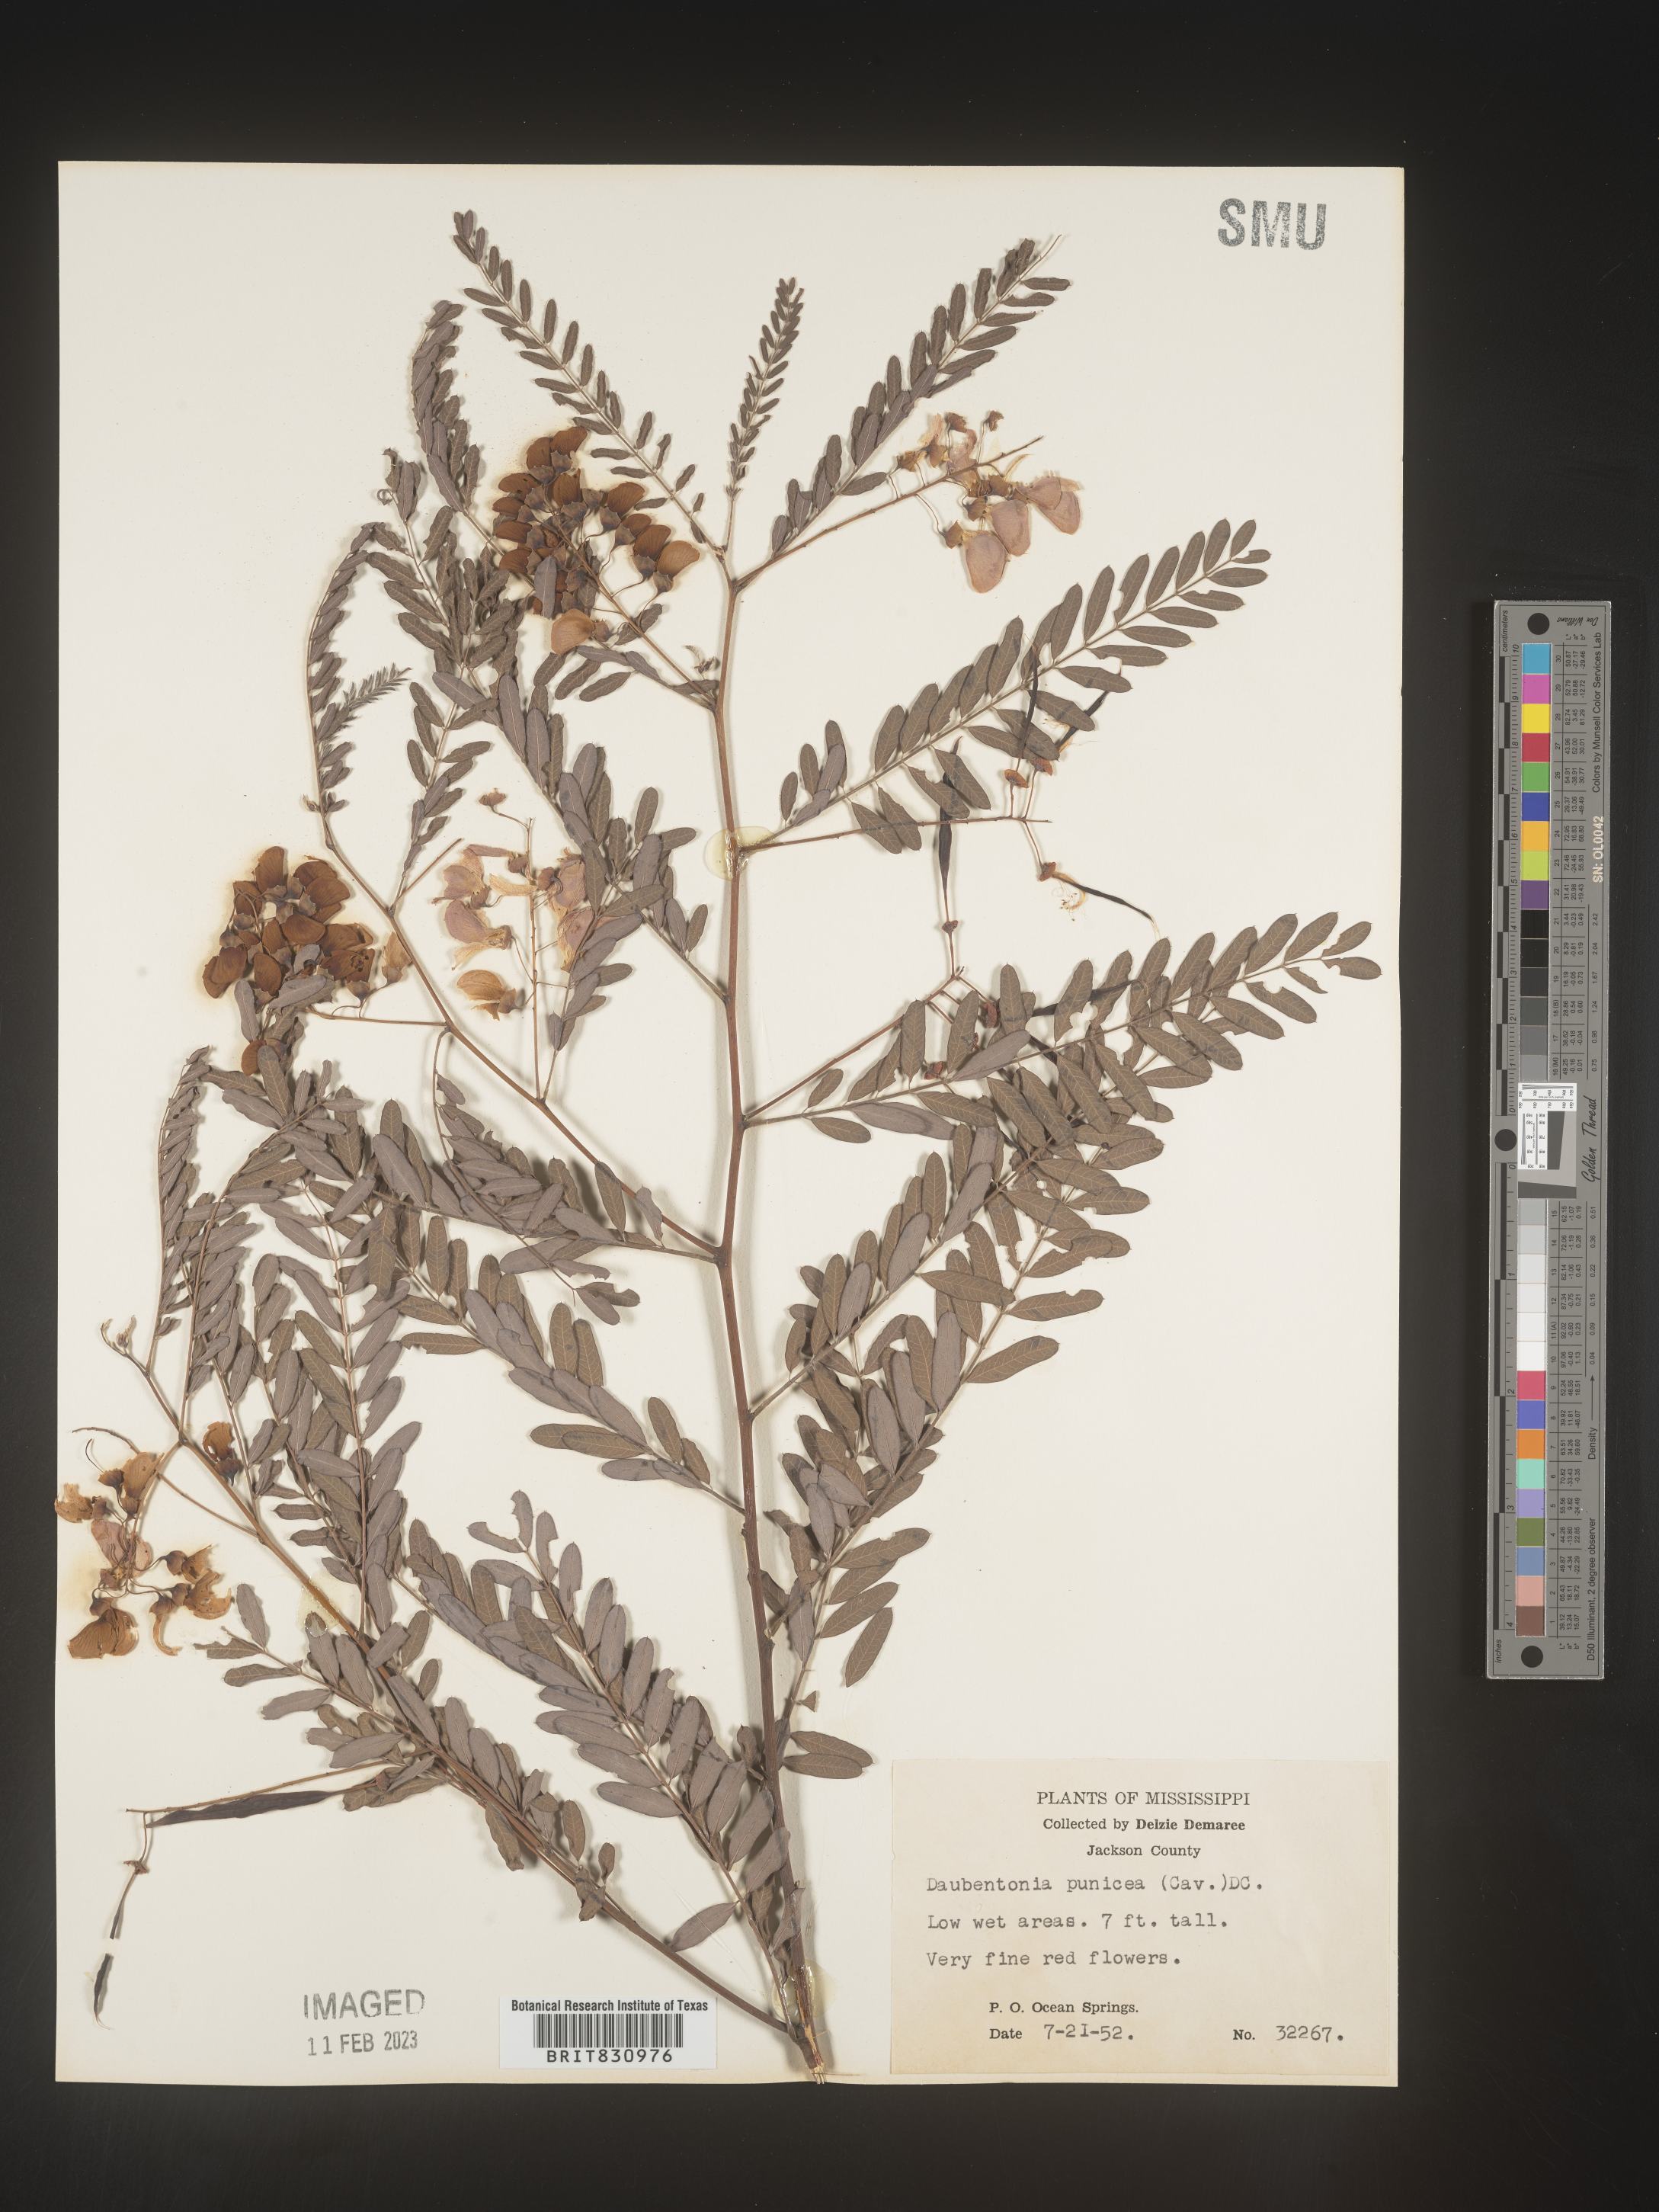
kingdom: Plantae
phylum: Tracheophyta
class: Magnoliopsida
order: Fabales
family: Fabaceae
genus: Sesbania
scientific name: Sesbania punicea
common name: Rattlebox
